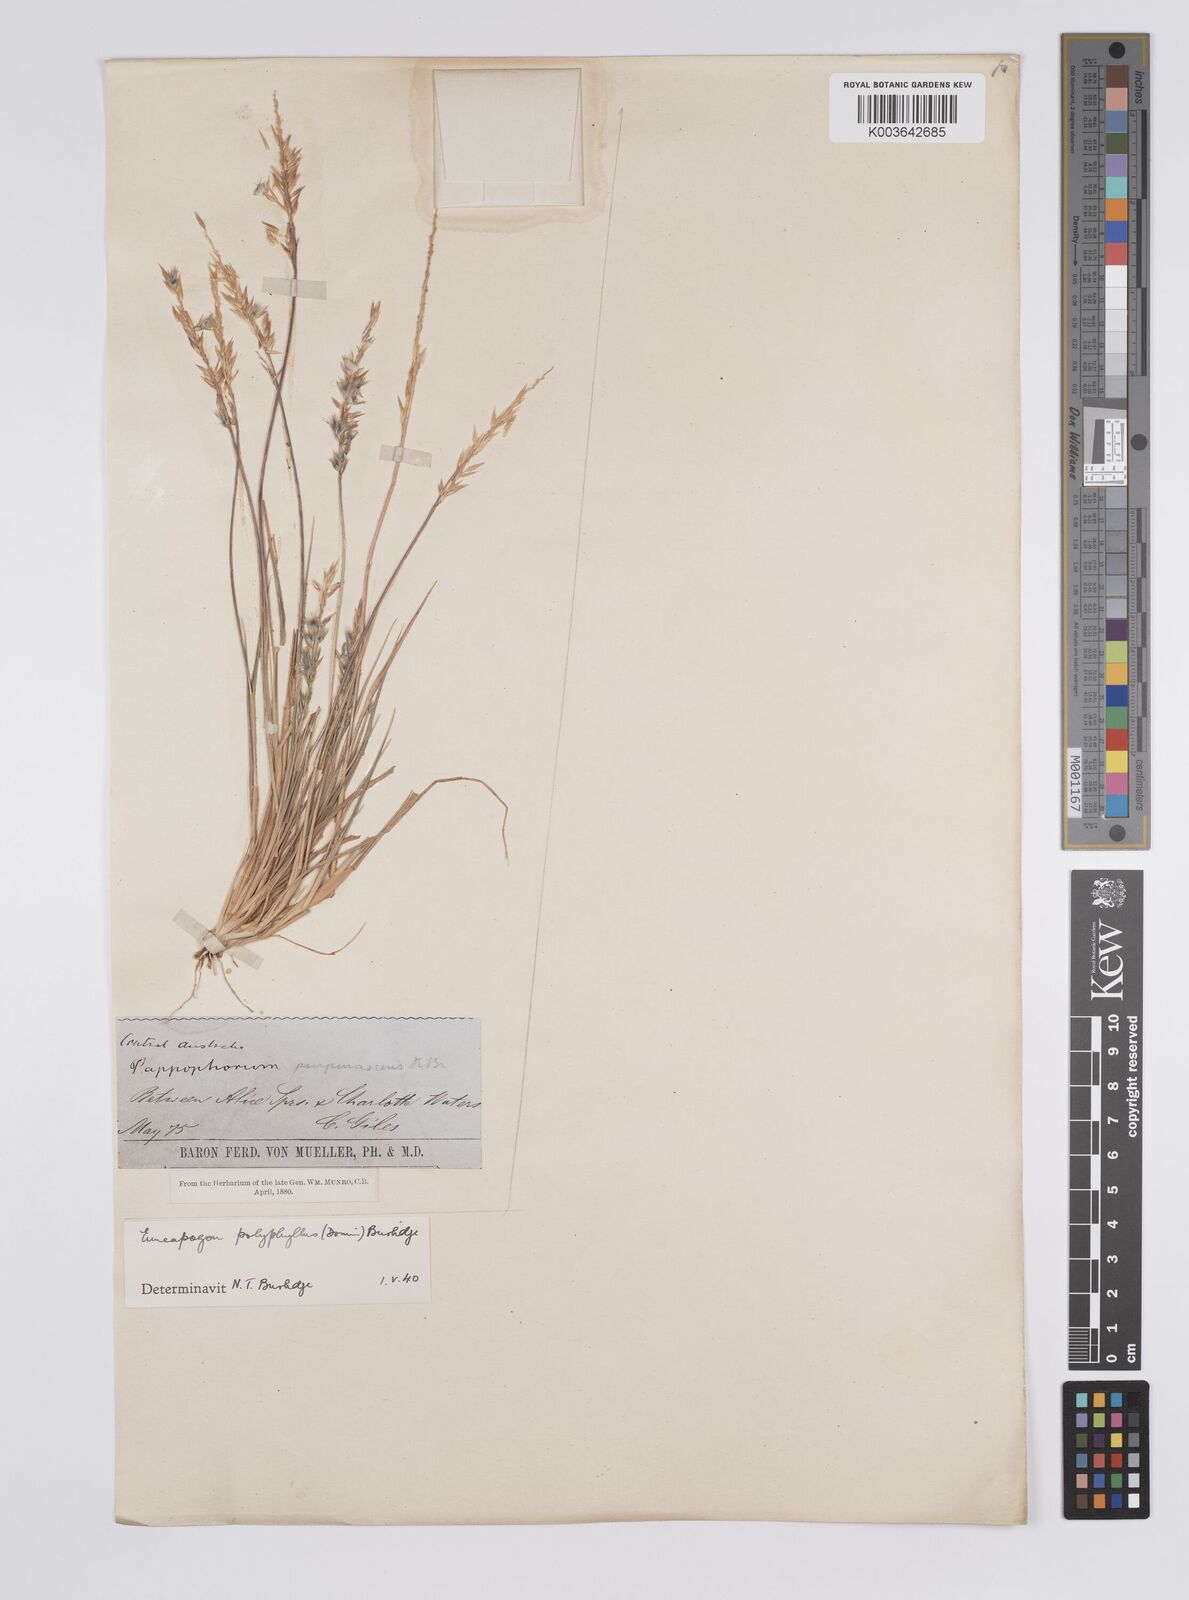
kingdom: Plantae
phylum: Tracheophyta
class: Liliopsida
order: Poales
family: Poaceae
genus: Enneapogon
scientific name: Enneapogon polyphyllus
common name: Leafy nineawn
